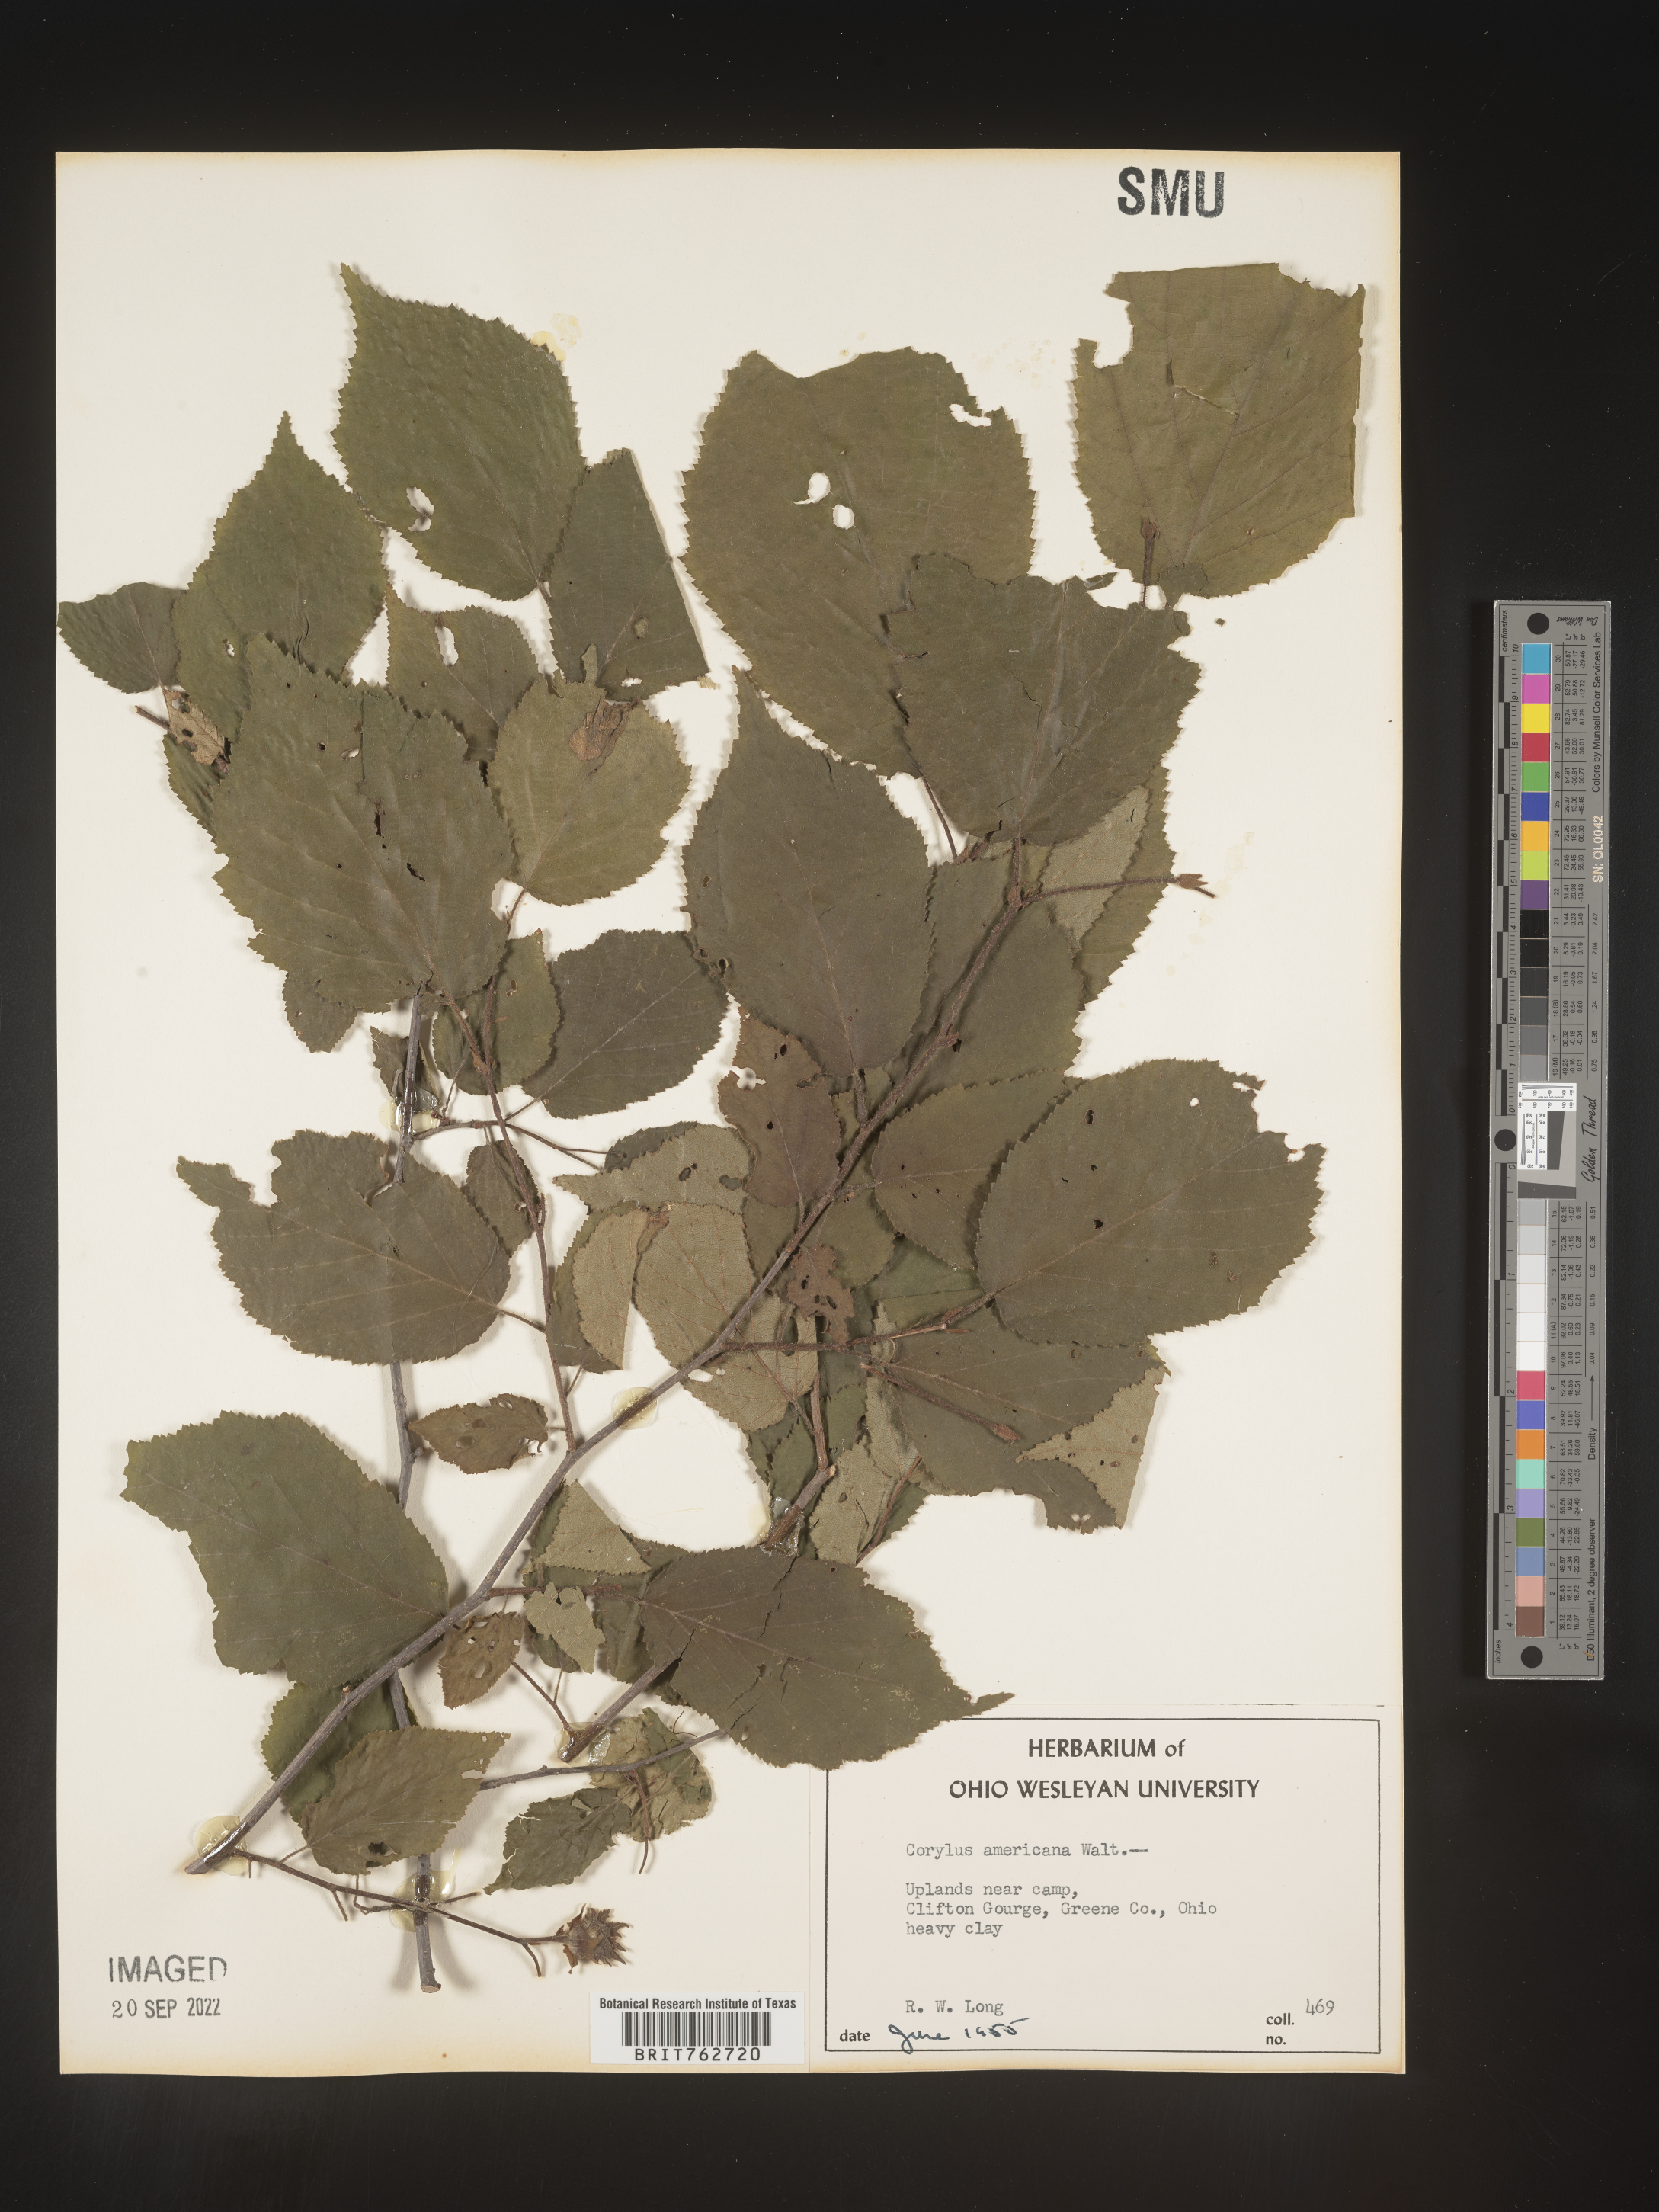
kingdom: Plantae
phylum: Tracheophyta
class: Magnoliopsida
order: Fagales
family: Betulaceae
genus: Corylus
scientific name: Corylus americana
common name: American hazel
